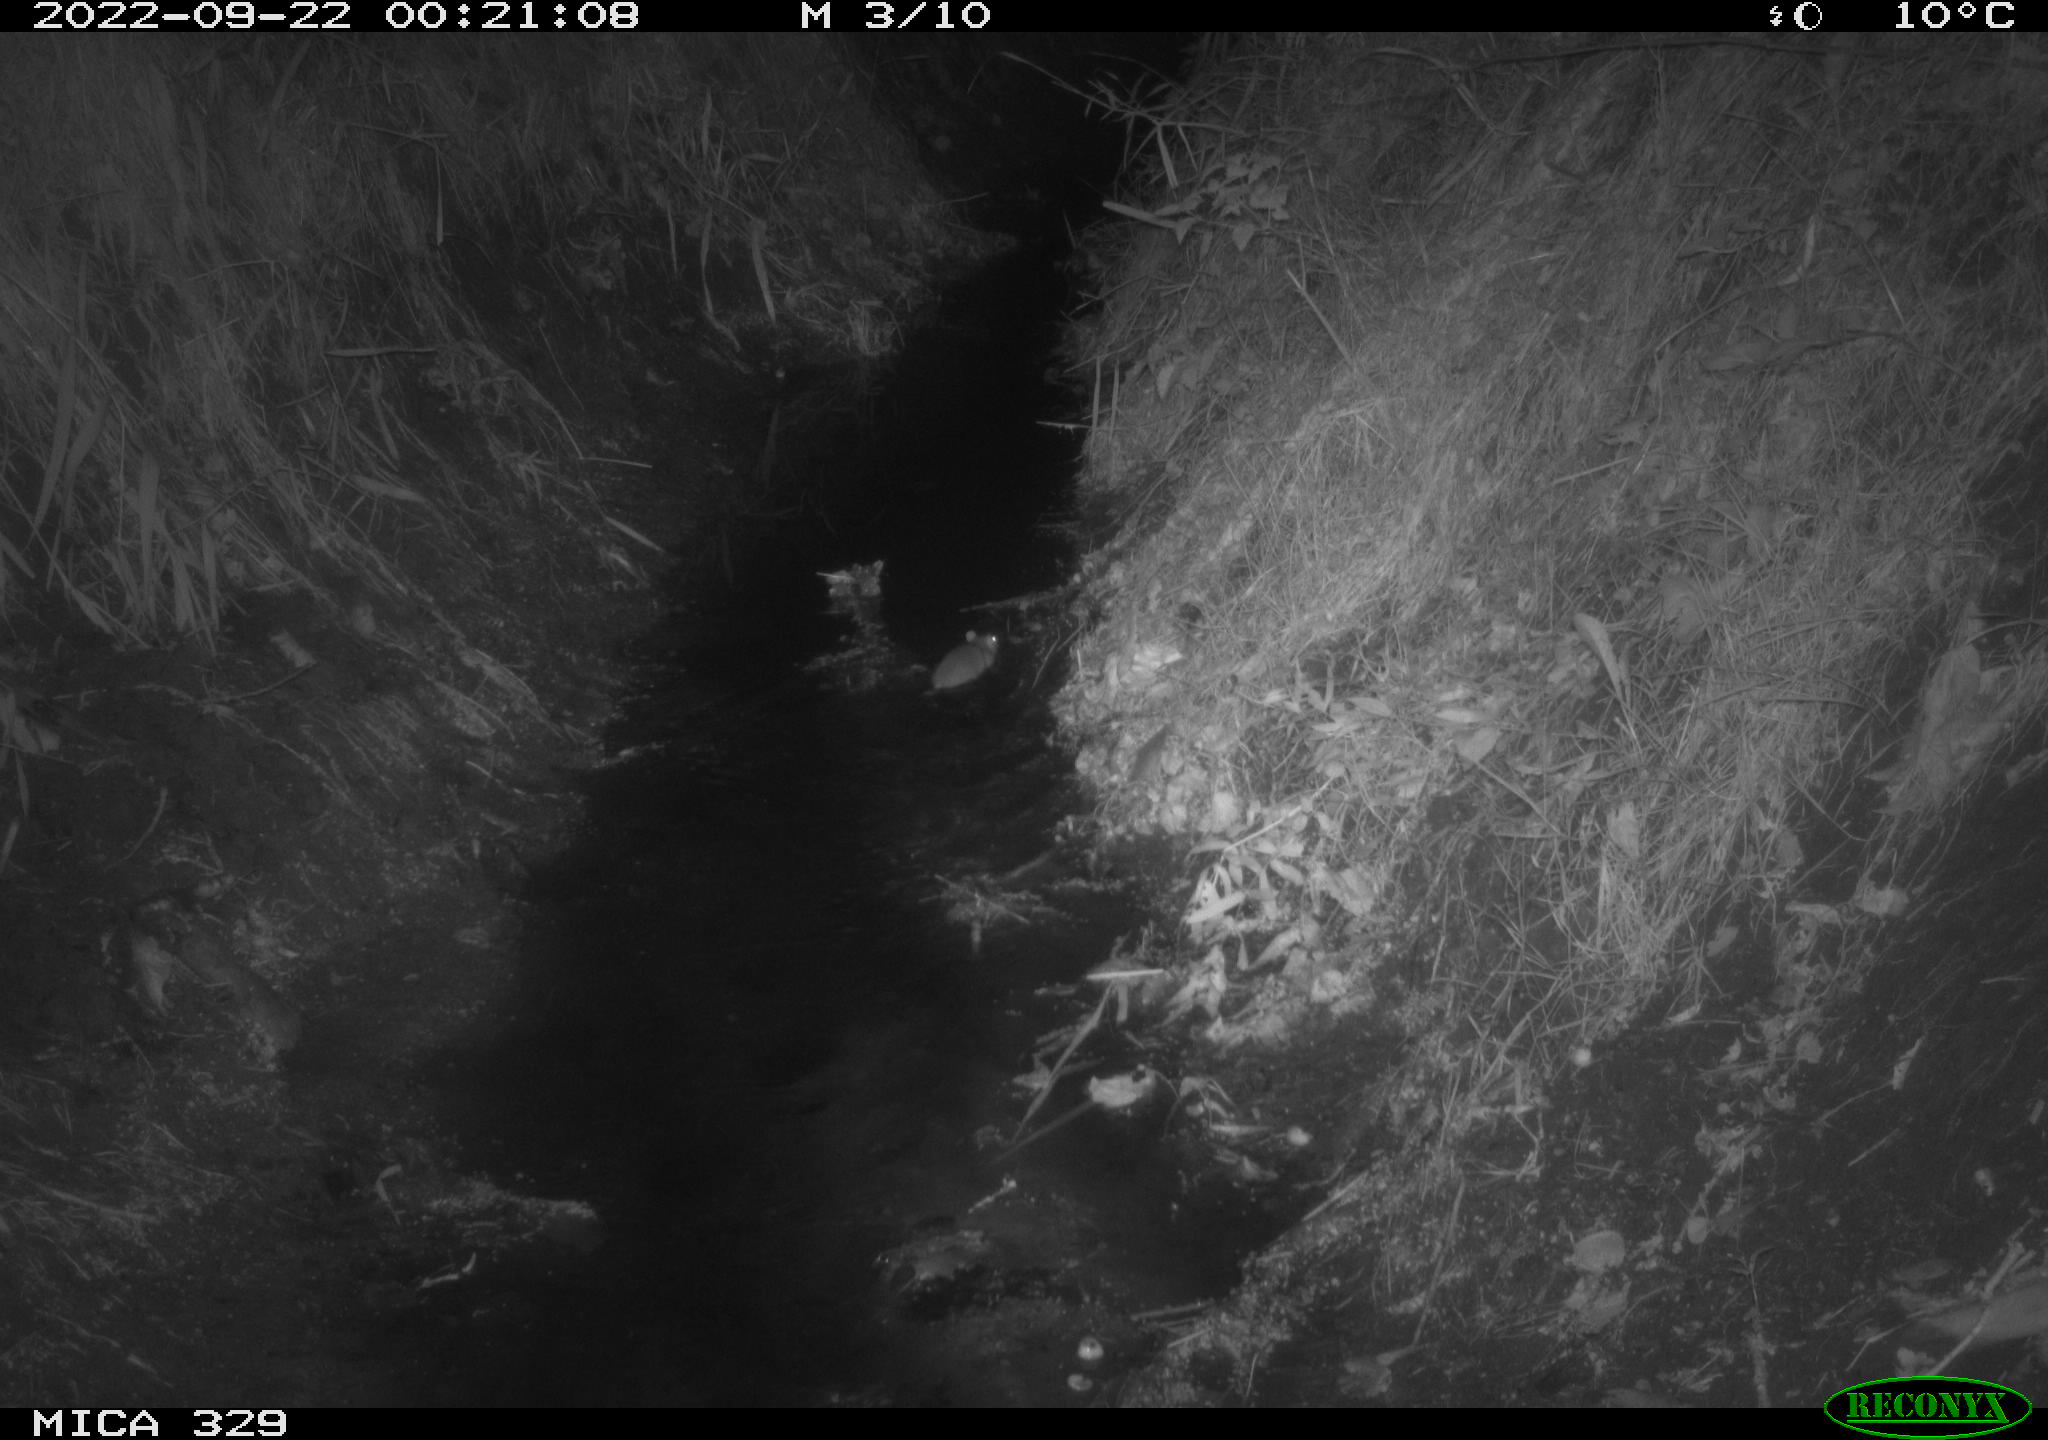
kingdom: Animalia
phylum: Chordata
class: Mammalia
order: Rodentia
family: Muridae
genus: Rattus
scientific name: Rattus norvegicus
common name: Brown rat
